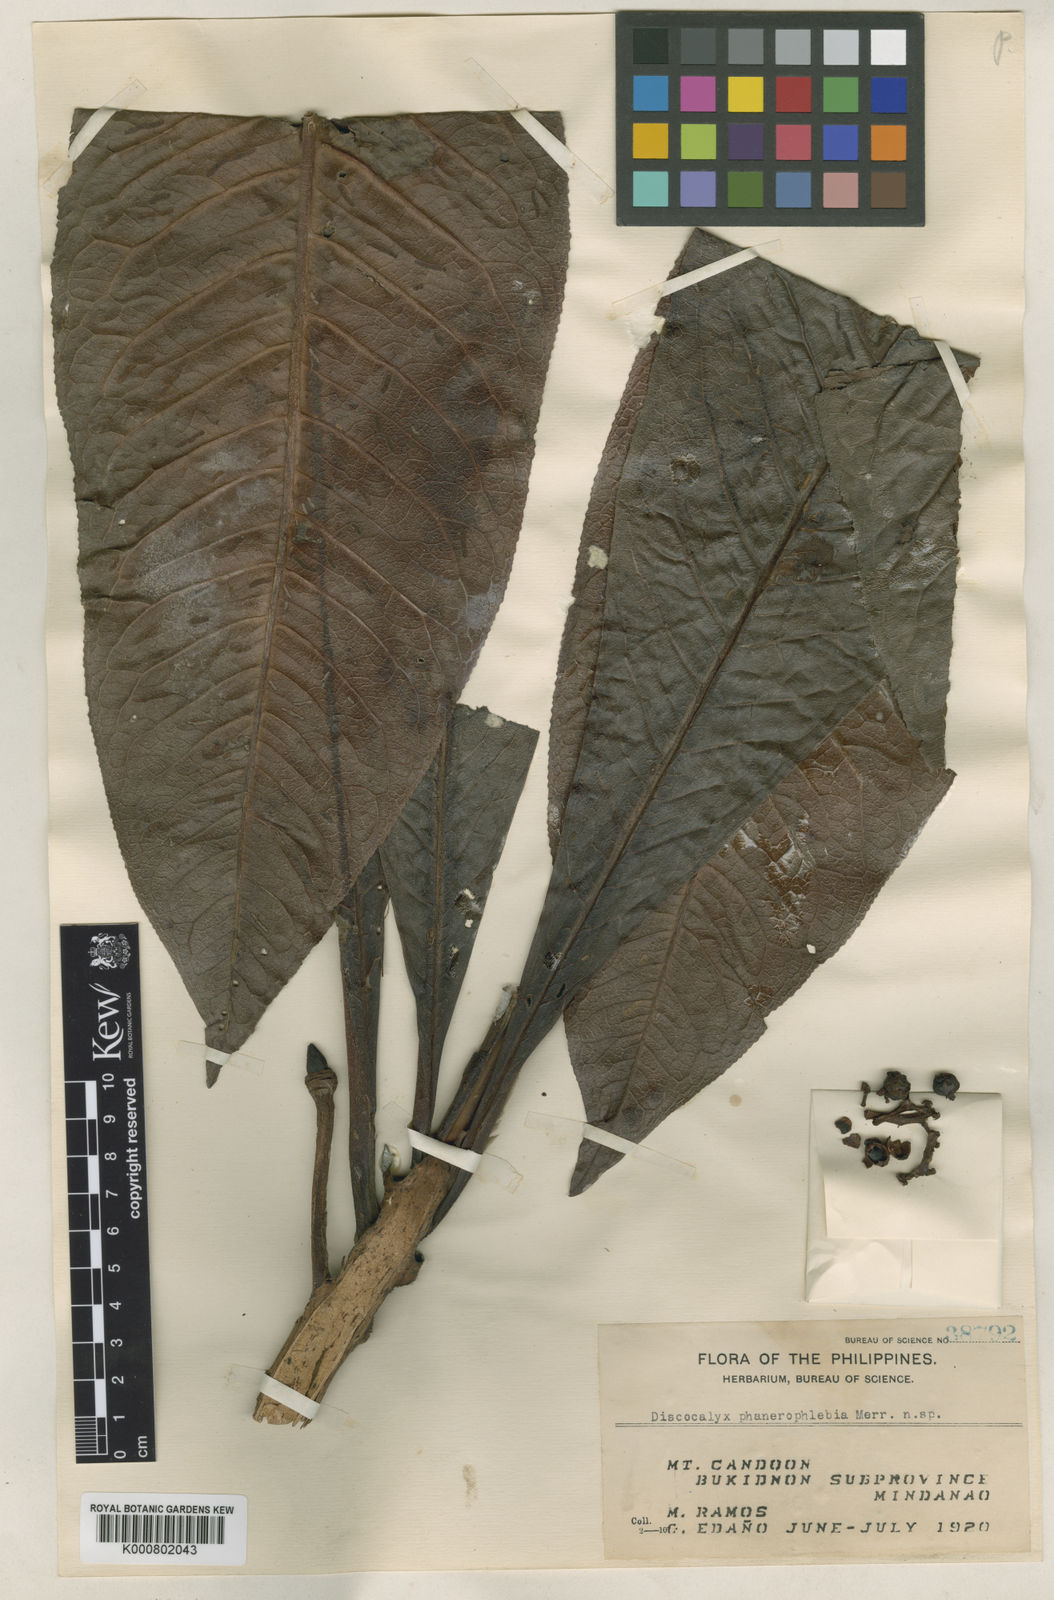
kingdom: Plantae
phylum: Tracheophyta
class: Magnoliopsida
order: Ericales
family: Primulaceae
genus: Discocalyx
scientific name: Discocalyx phanerophlebia
